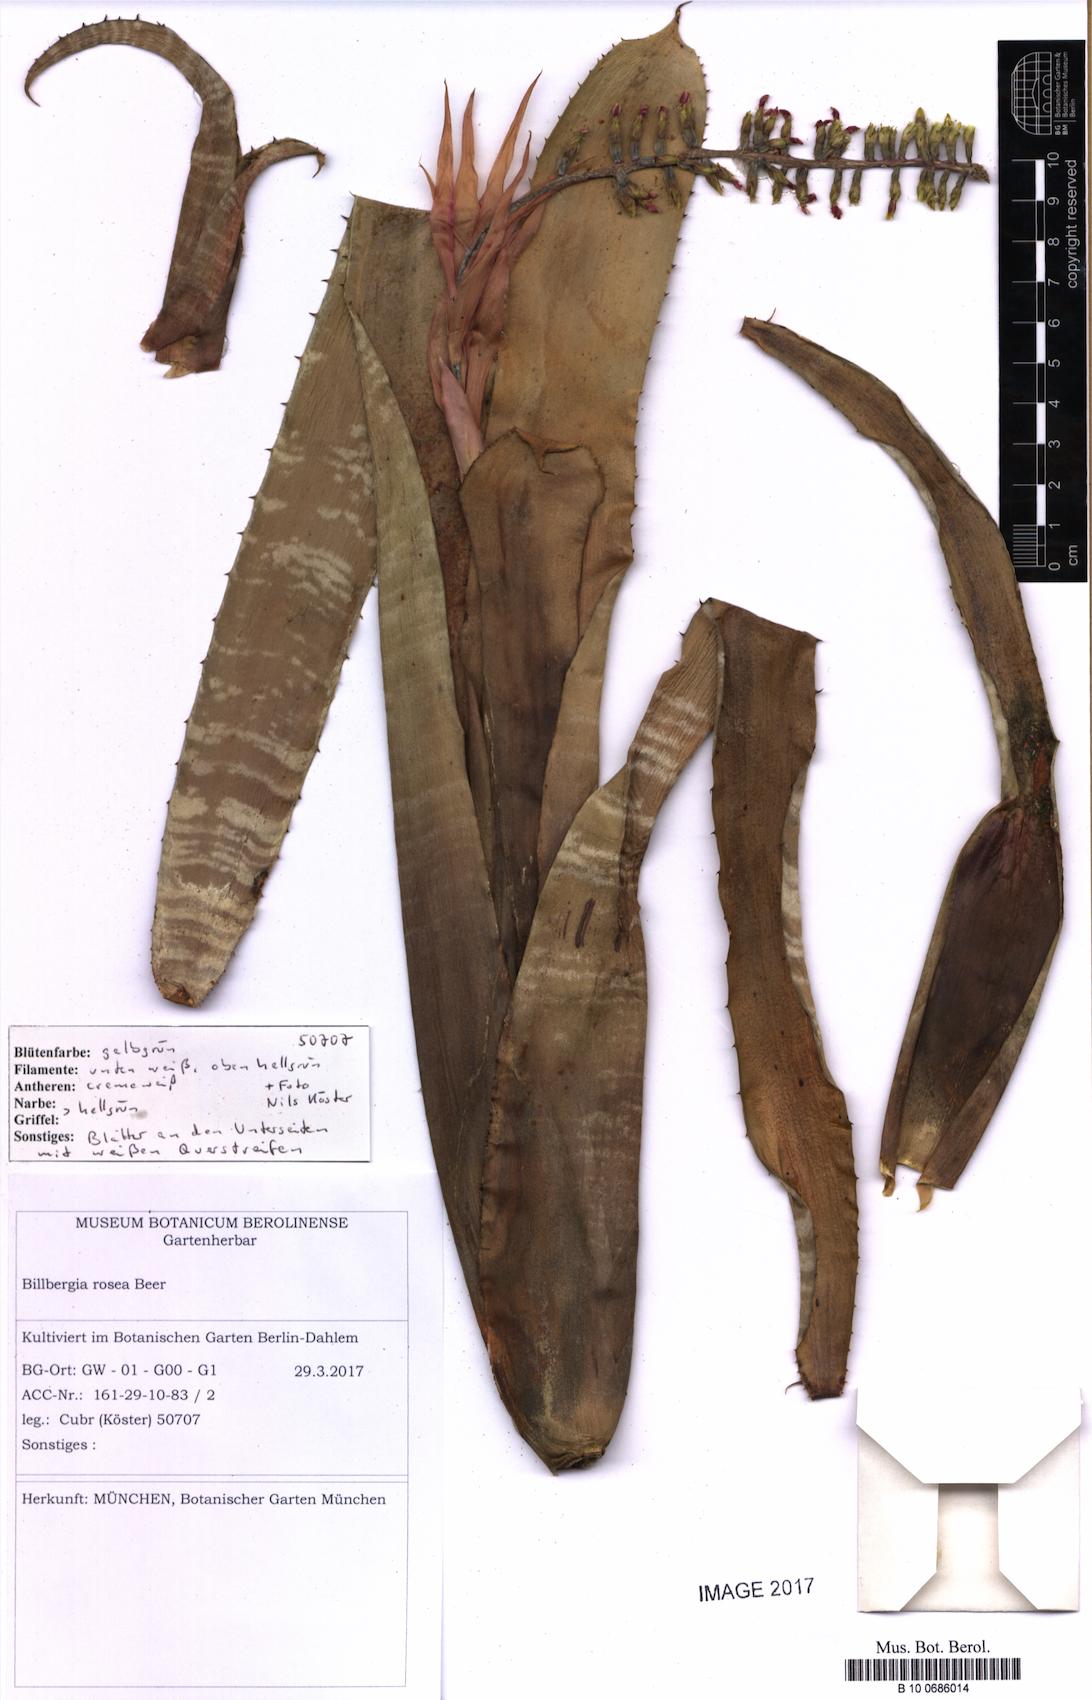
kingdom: Plantae
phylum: Tracheophyta
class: Liliopsida
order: Poales
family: Bromeliaceae
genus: Billbergia
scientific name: Billbergia rosea
